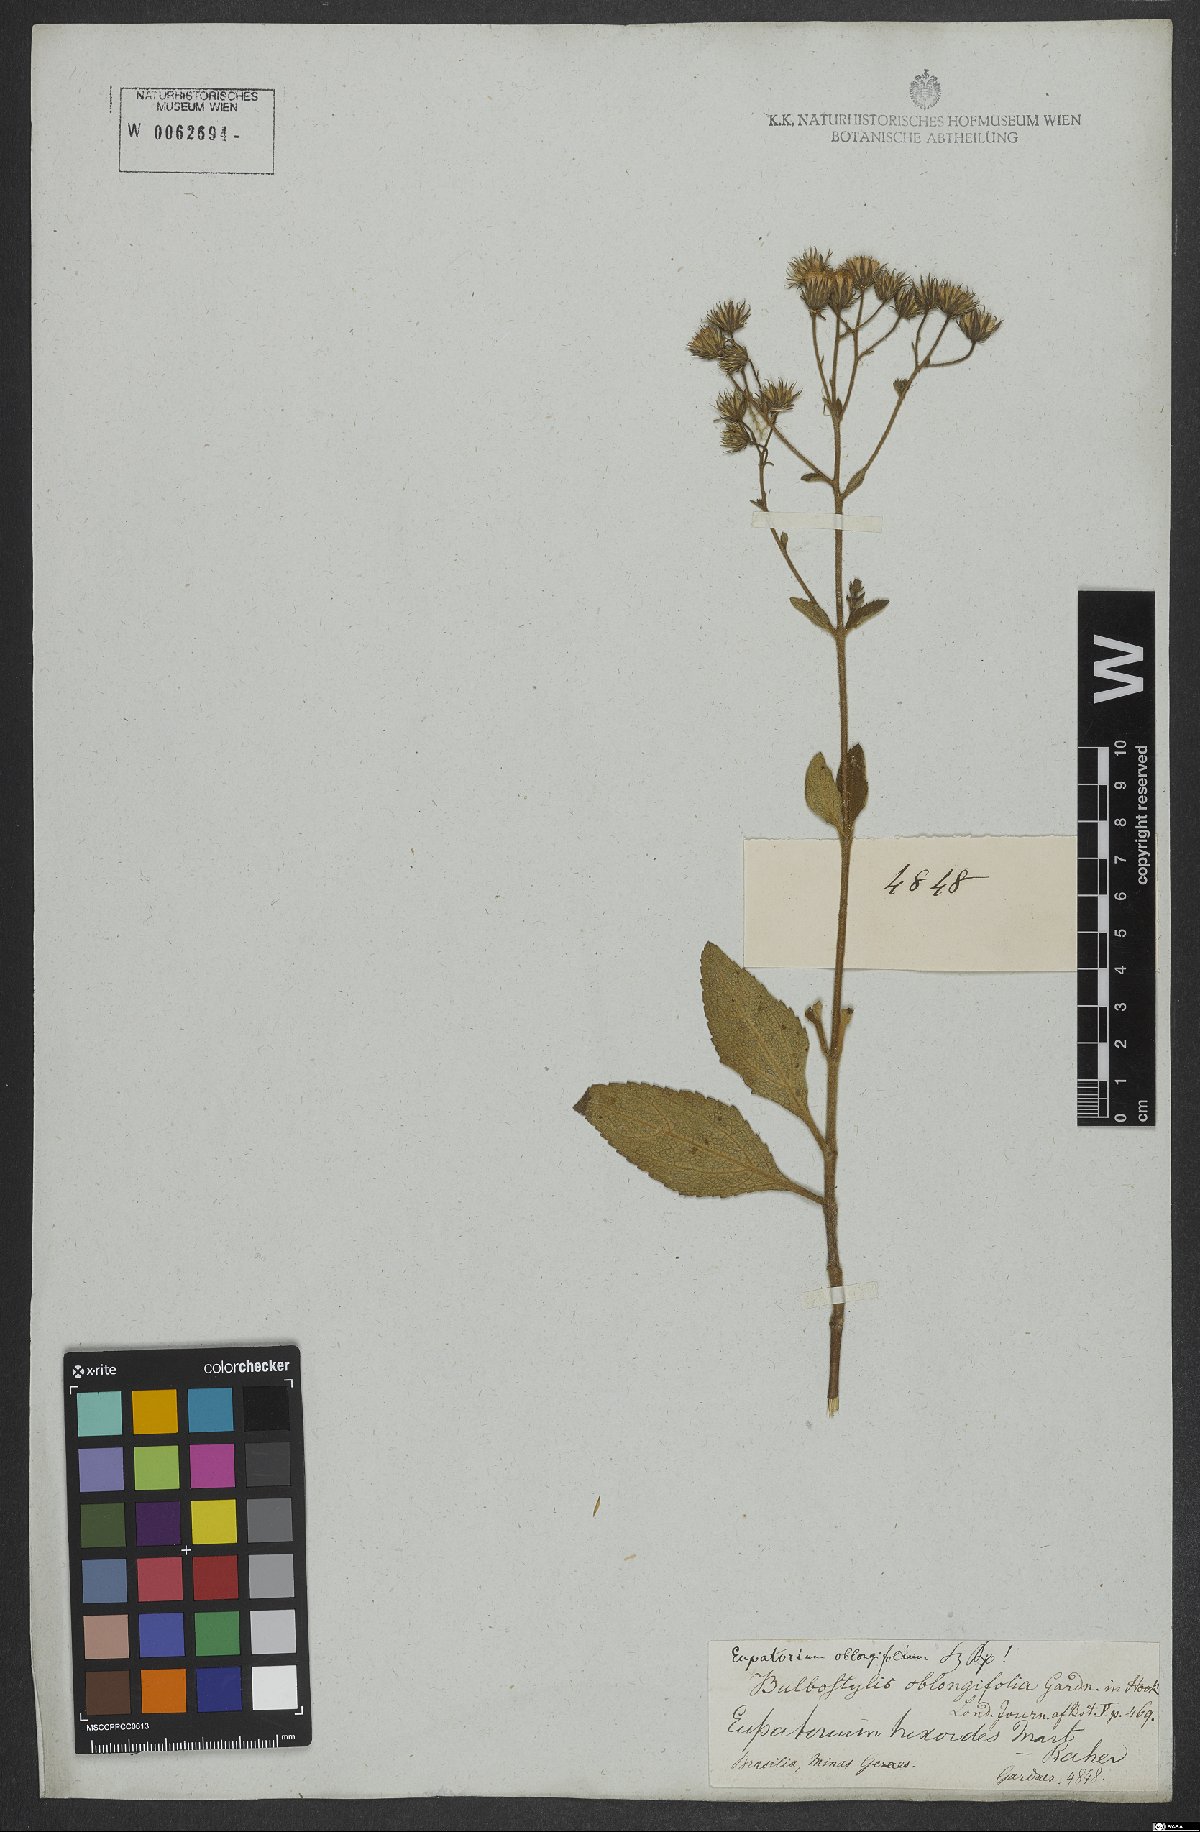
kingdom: Plantae
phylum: Tracheophyta
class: Magnoliopsida
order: Asterales
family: Asteraceae
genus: Ayapanopsis
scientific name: Ayapanopsis oblongifolia
